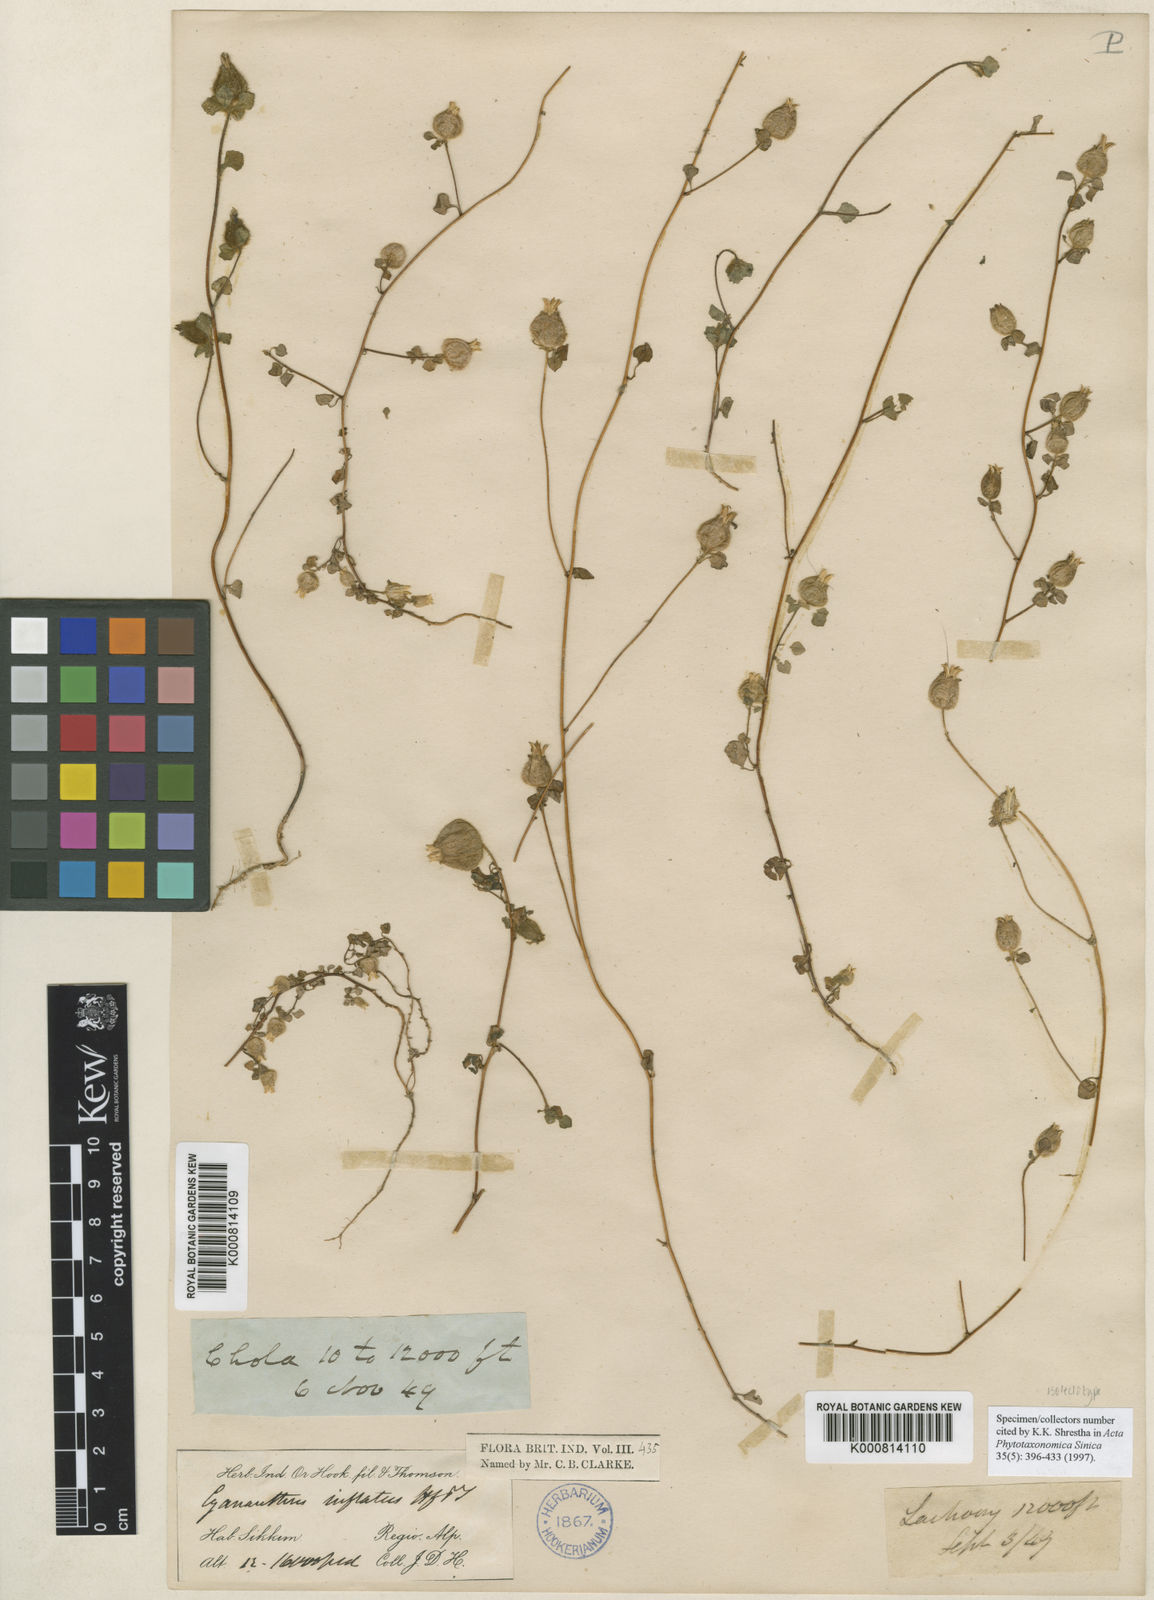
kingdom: Plantae
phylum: Tracheophyta
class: Magnoliopsida
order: Asterales
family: Campanulaceae
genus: Cyananthus
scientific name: Cyananthus inflatus
